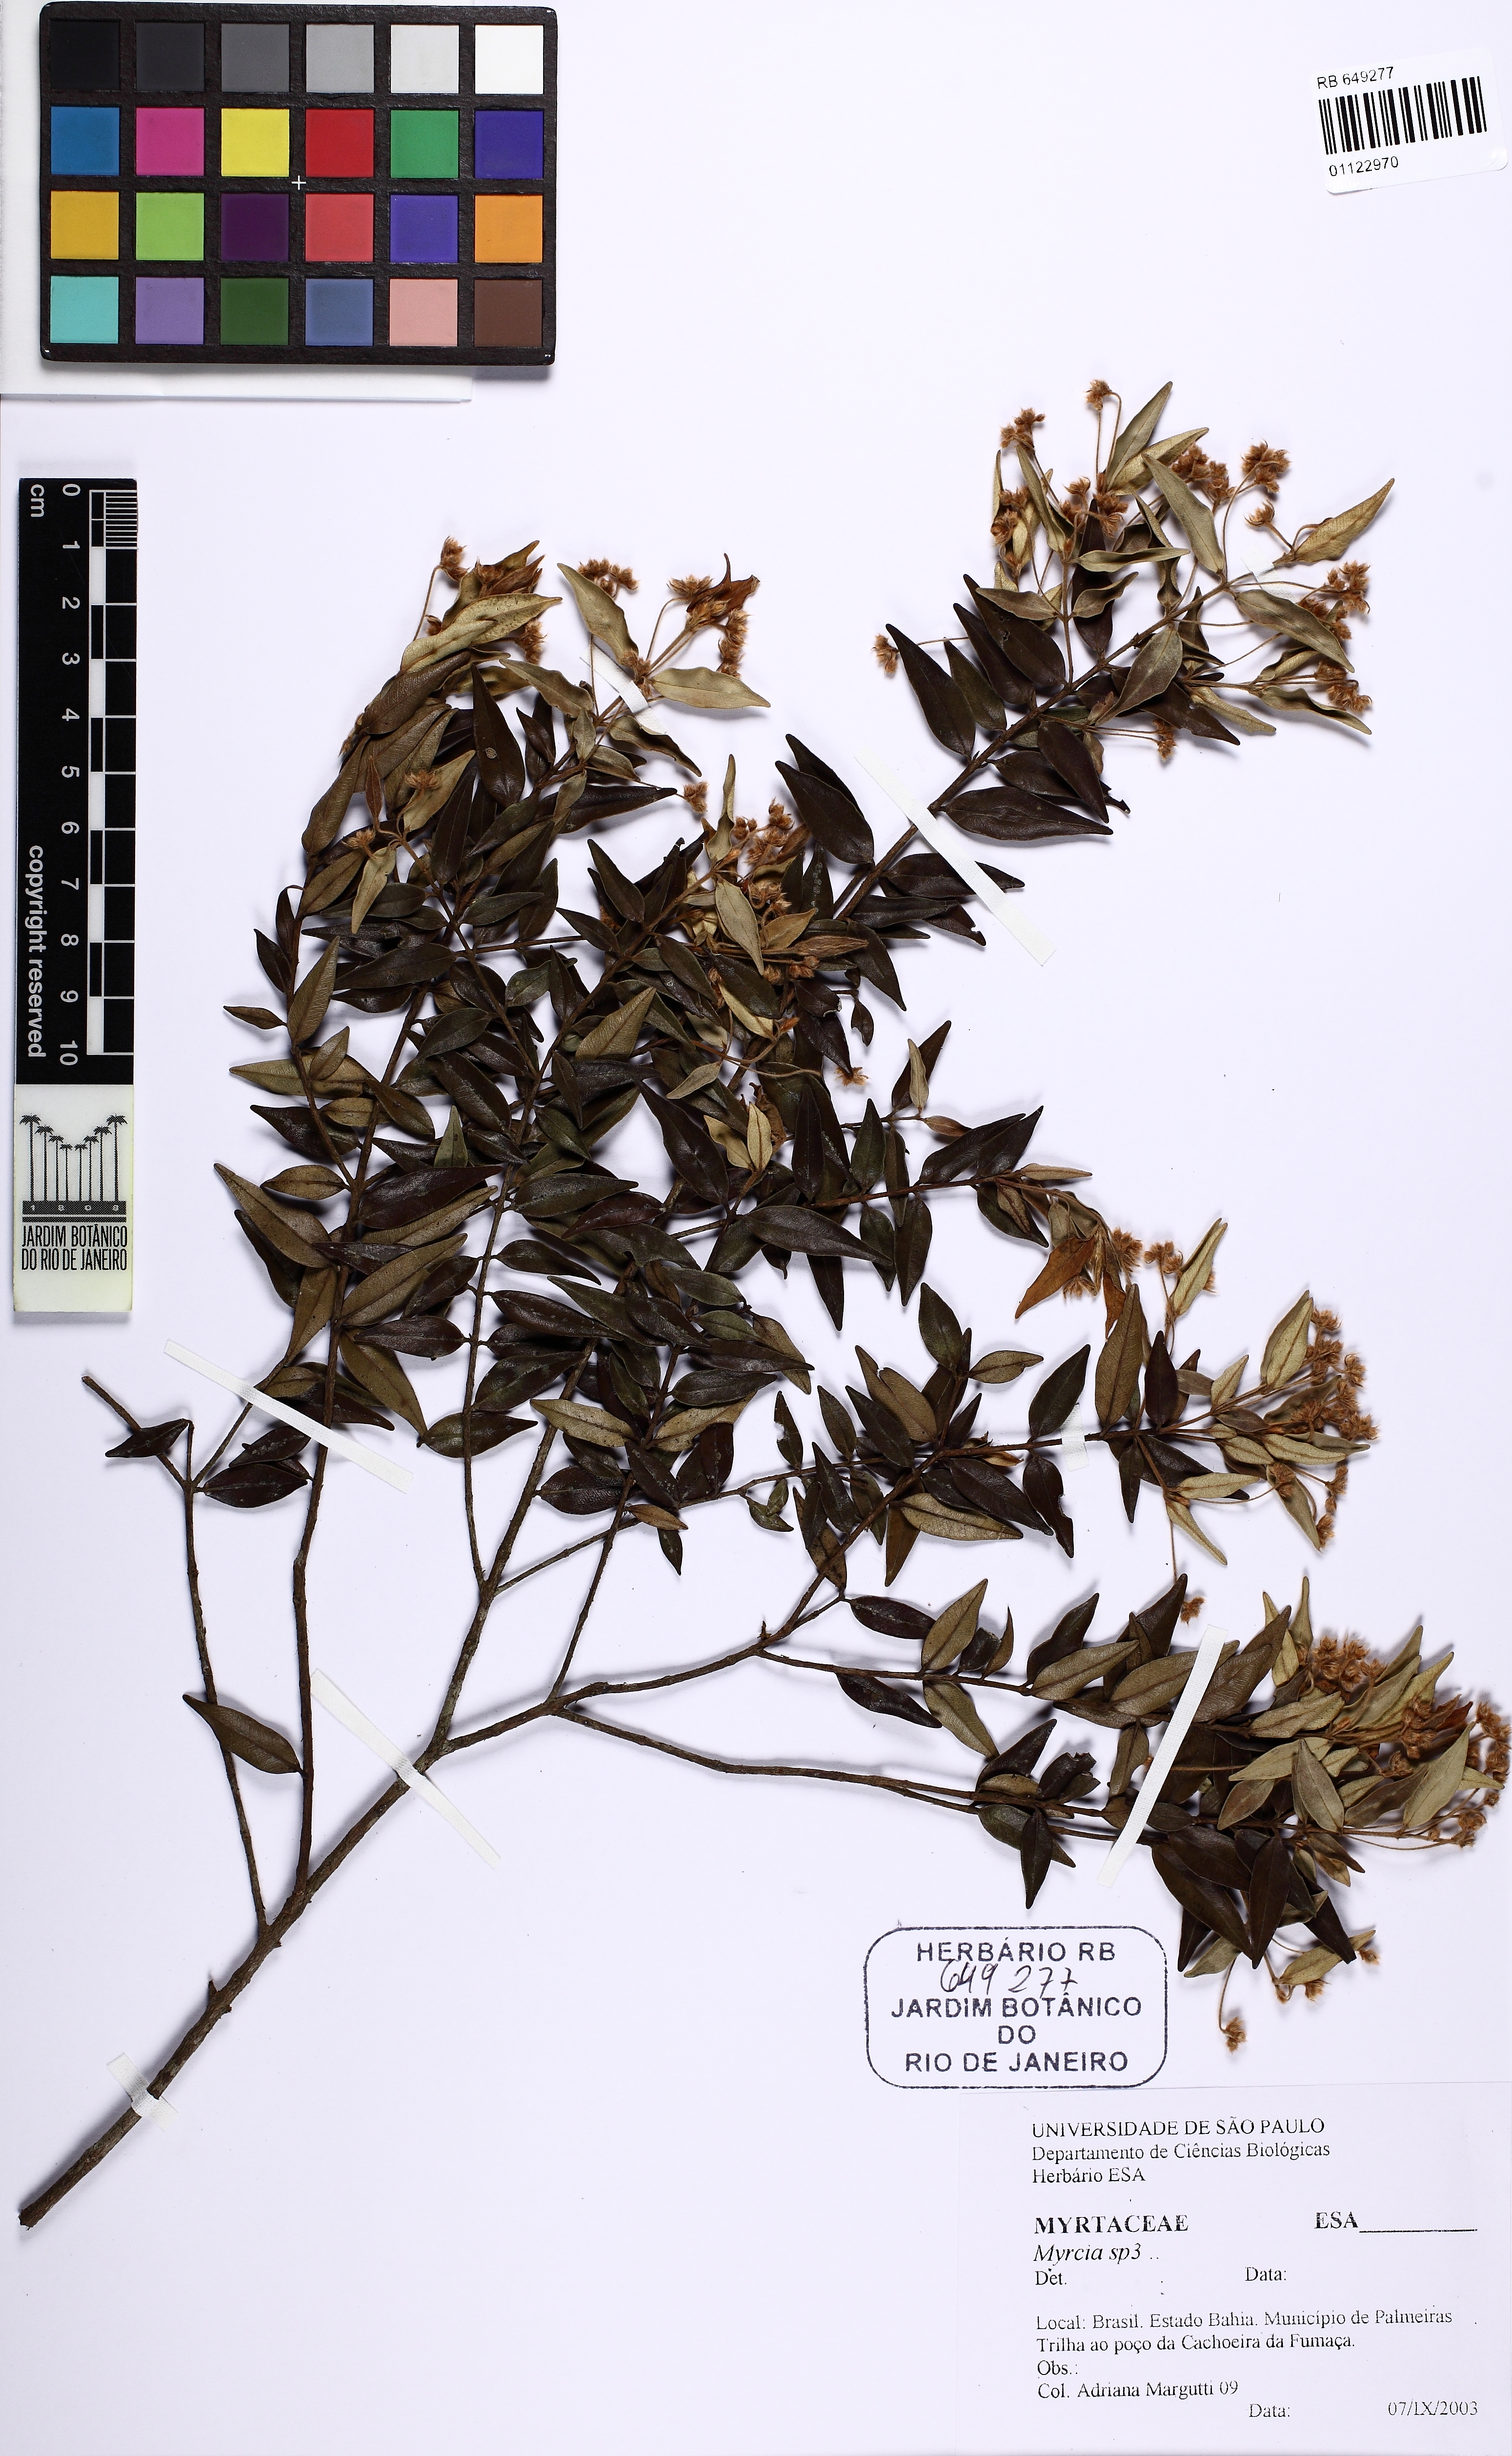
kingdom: Plantae
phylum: Tracheophyta
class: Magnoliopsida
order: Myrtales
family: Myrtaceae
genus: Myrcia
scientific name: Myrcia
